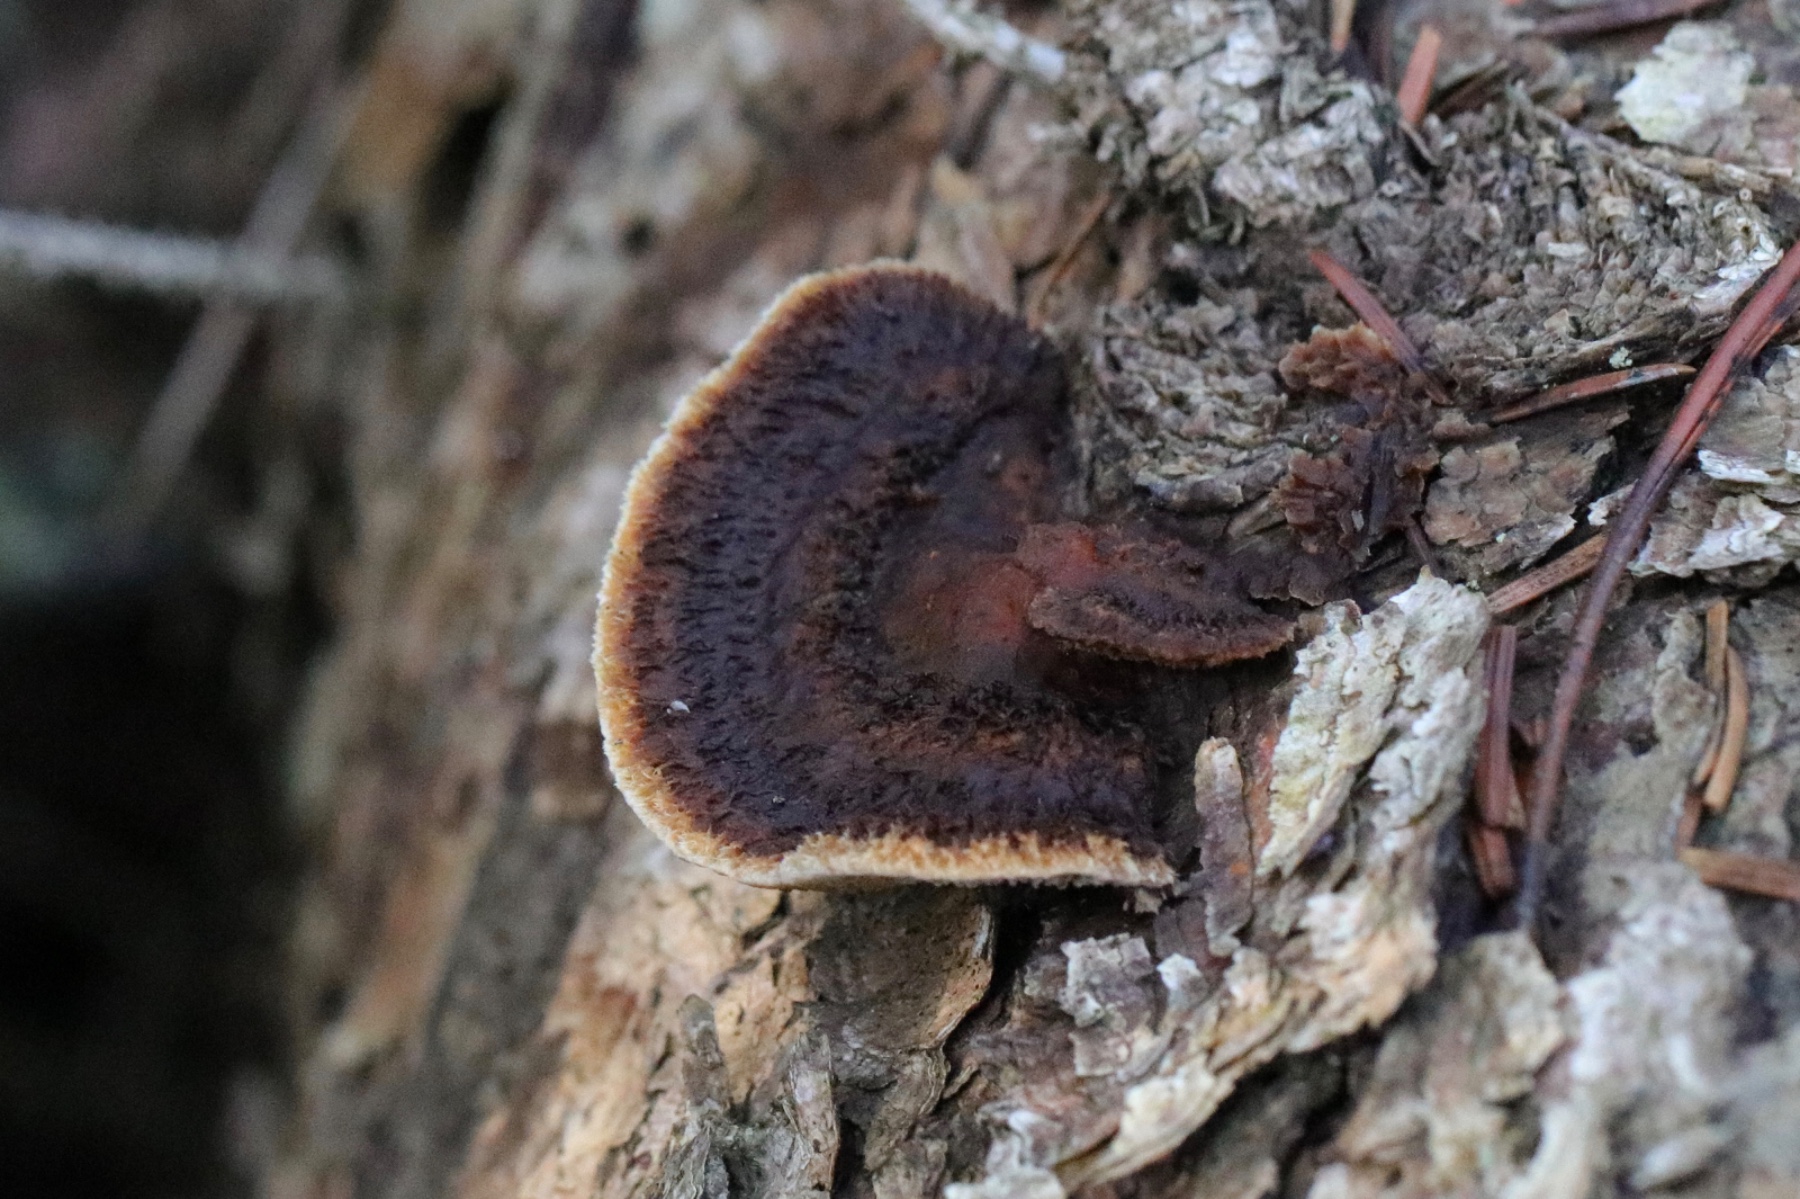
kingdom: Fungi
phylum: Basidiomycota
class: Agaricomycetes
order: Gloeophyllales
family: Gloeophyllaceae
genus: Gloeophyllum
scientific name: Gloeophyllum sepiarium
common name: fyrre-korkhat
